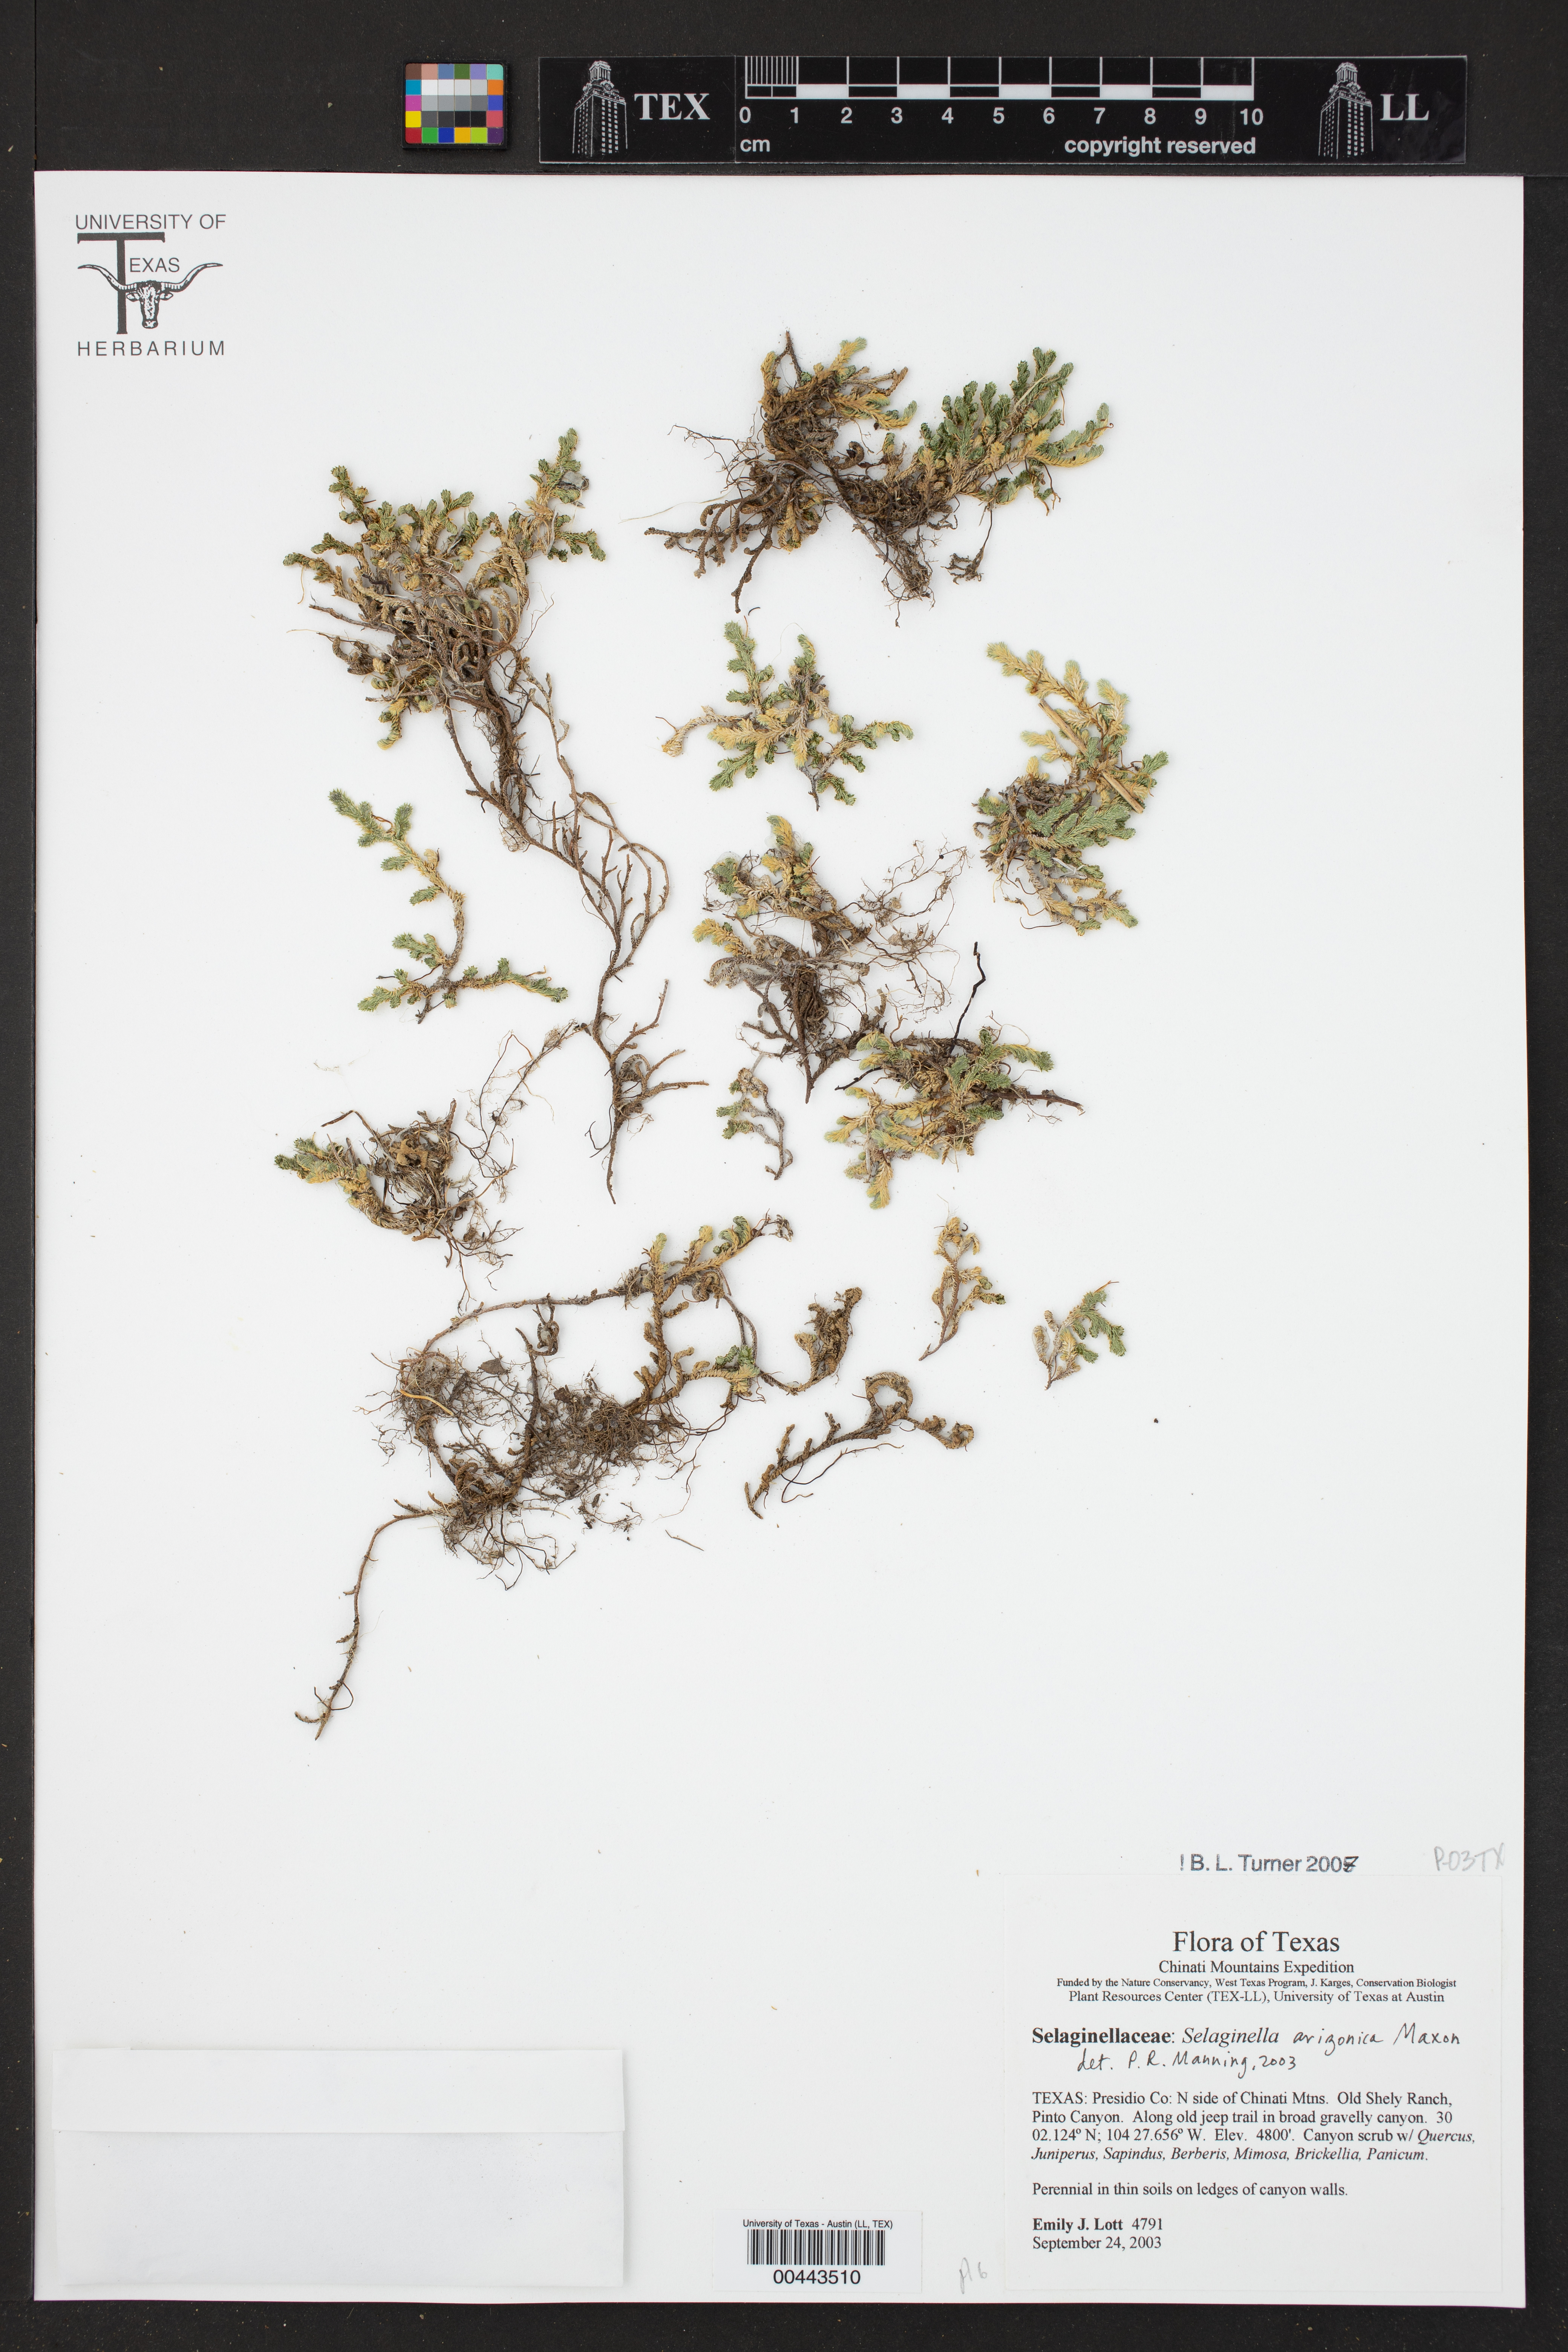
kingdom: Plantae
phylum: Tracheophyta
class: Lycopodiopsida
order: Selaginellales
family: Selaginellaceae
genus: Selaginella
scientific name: Selaginella arizonica
